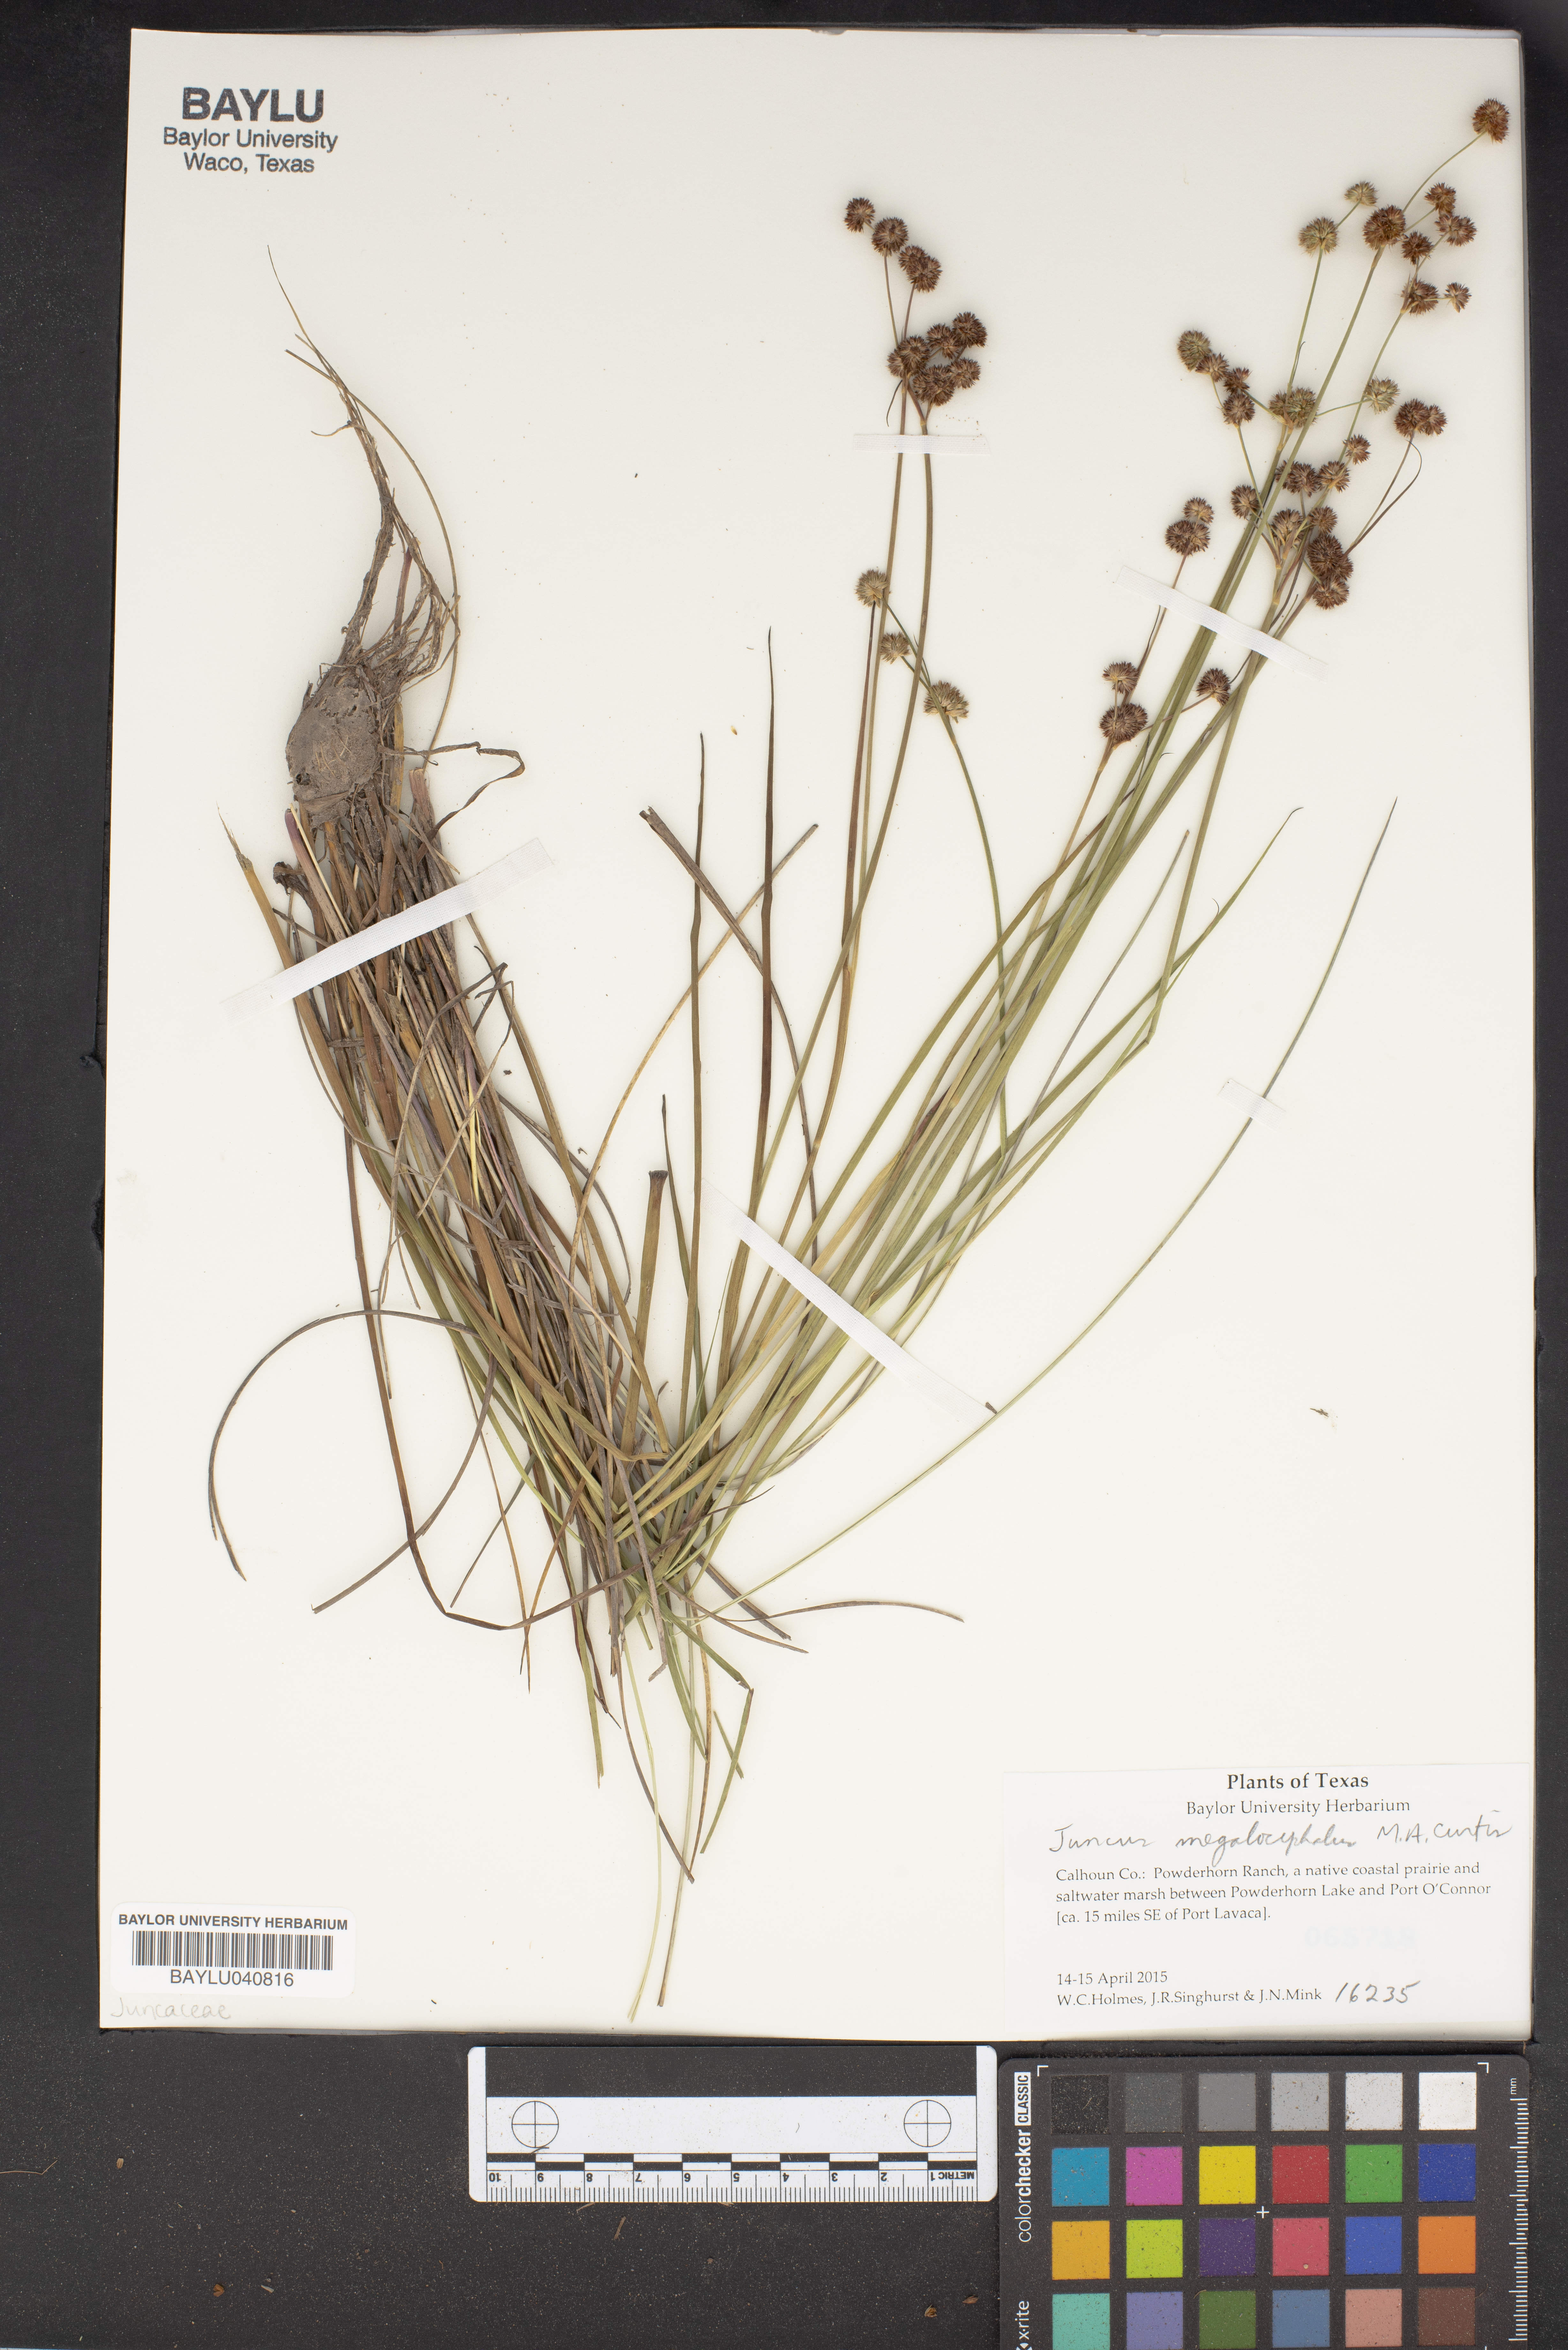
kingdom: Plantae
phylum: Tracheophyta
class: Liliopsida
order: Poales
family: Juncaceae
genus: Juncus
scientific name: Juncus megacephalus
